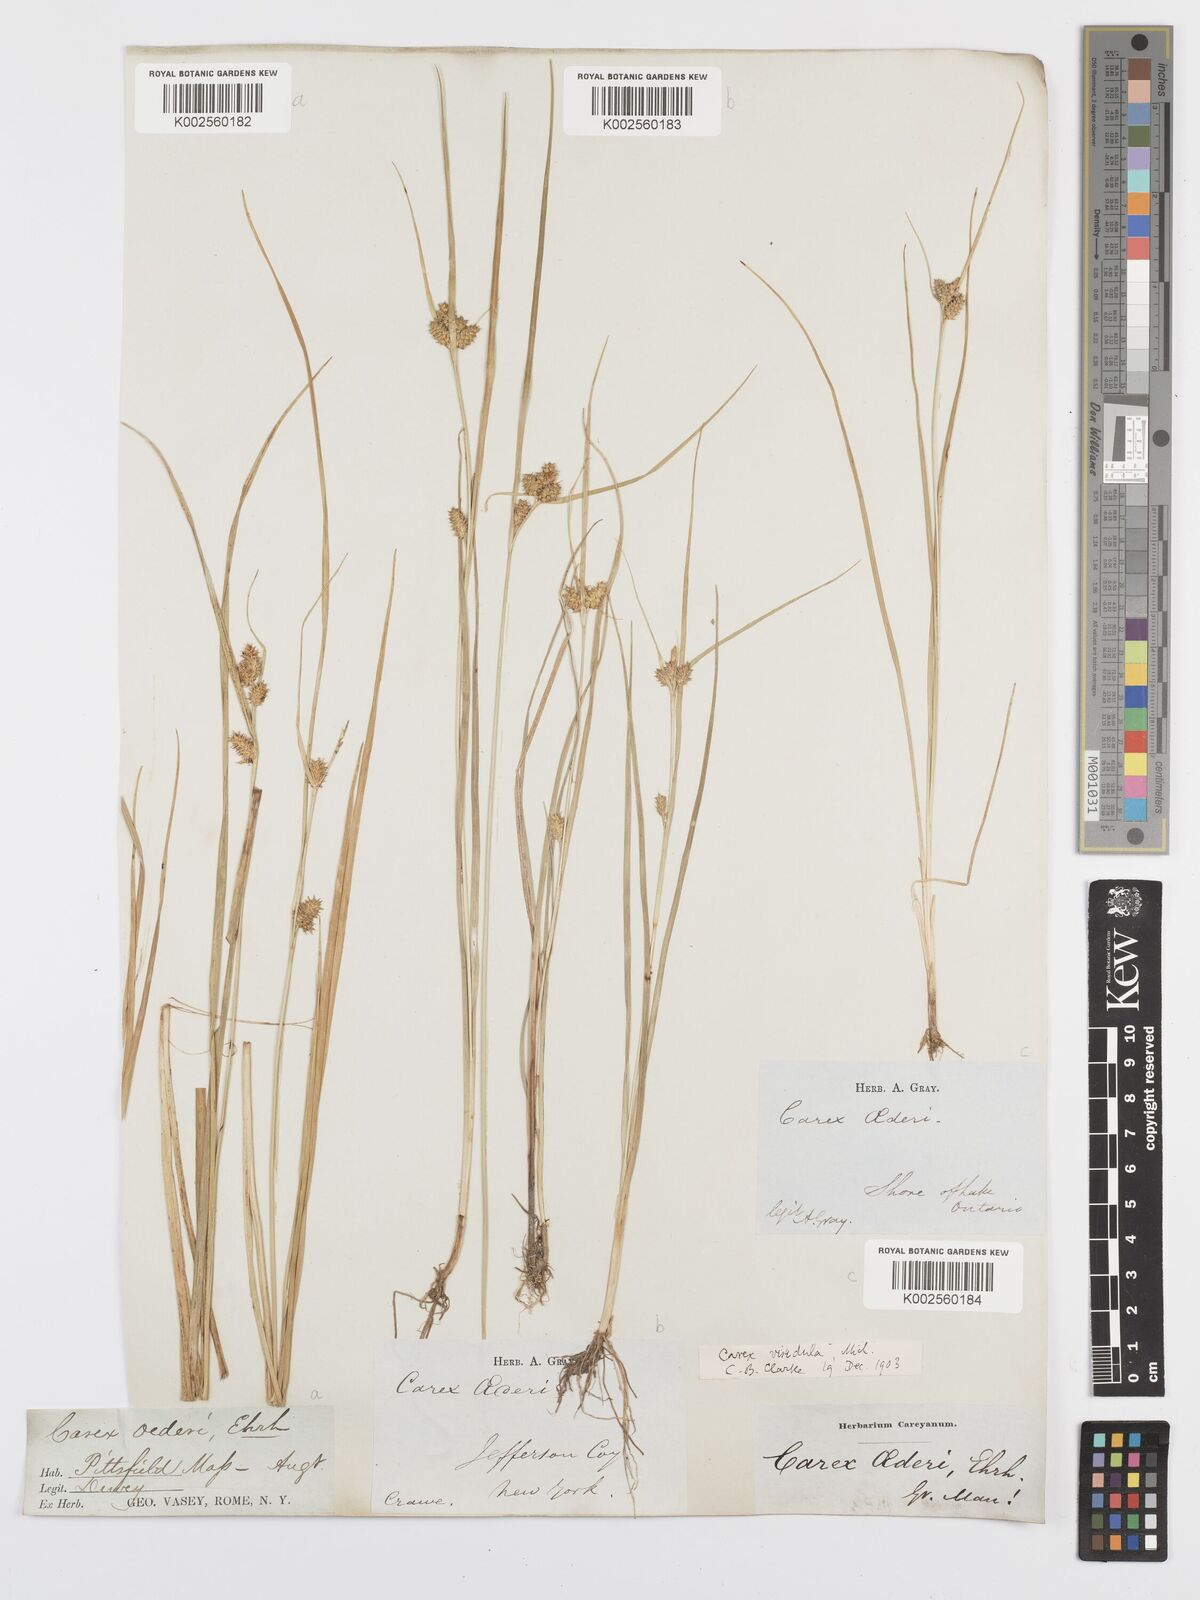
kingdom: Plantae
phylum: Tracheophyta
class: Liliopsida
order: Poales
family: Cyperaceae
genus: Carex
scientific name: Carex oederi
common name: Common & small-fruited yellow-sedge
